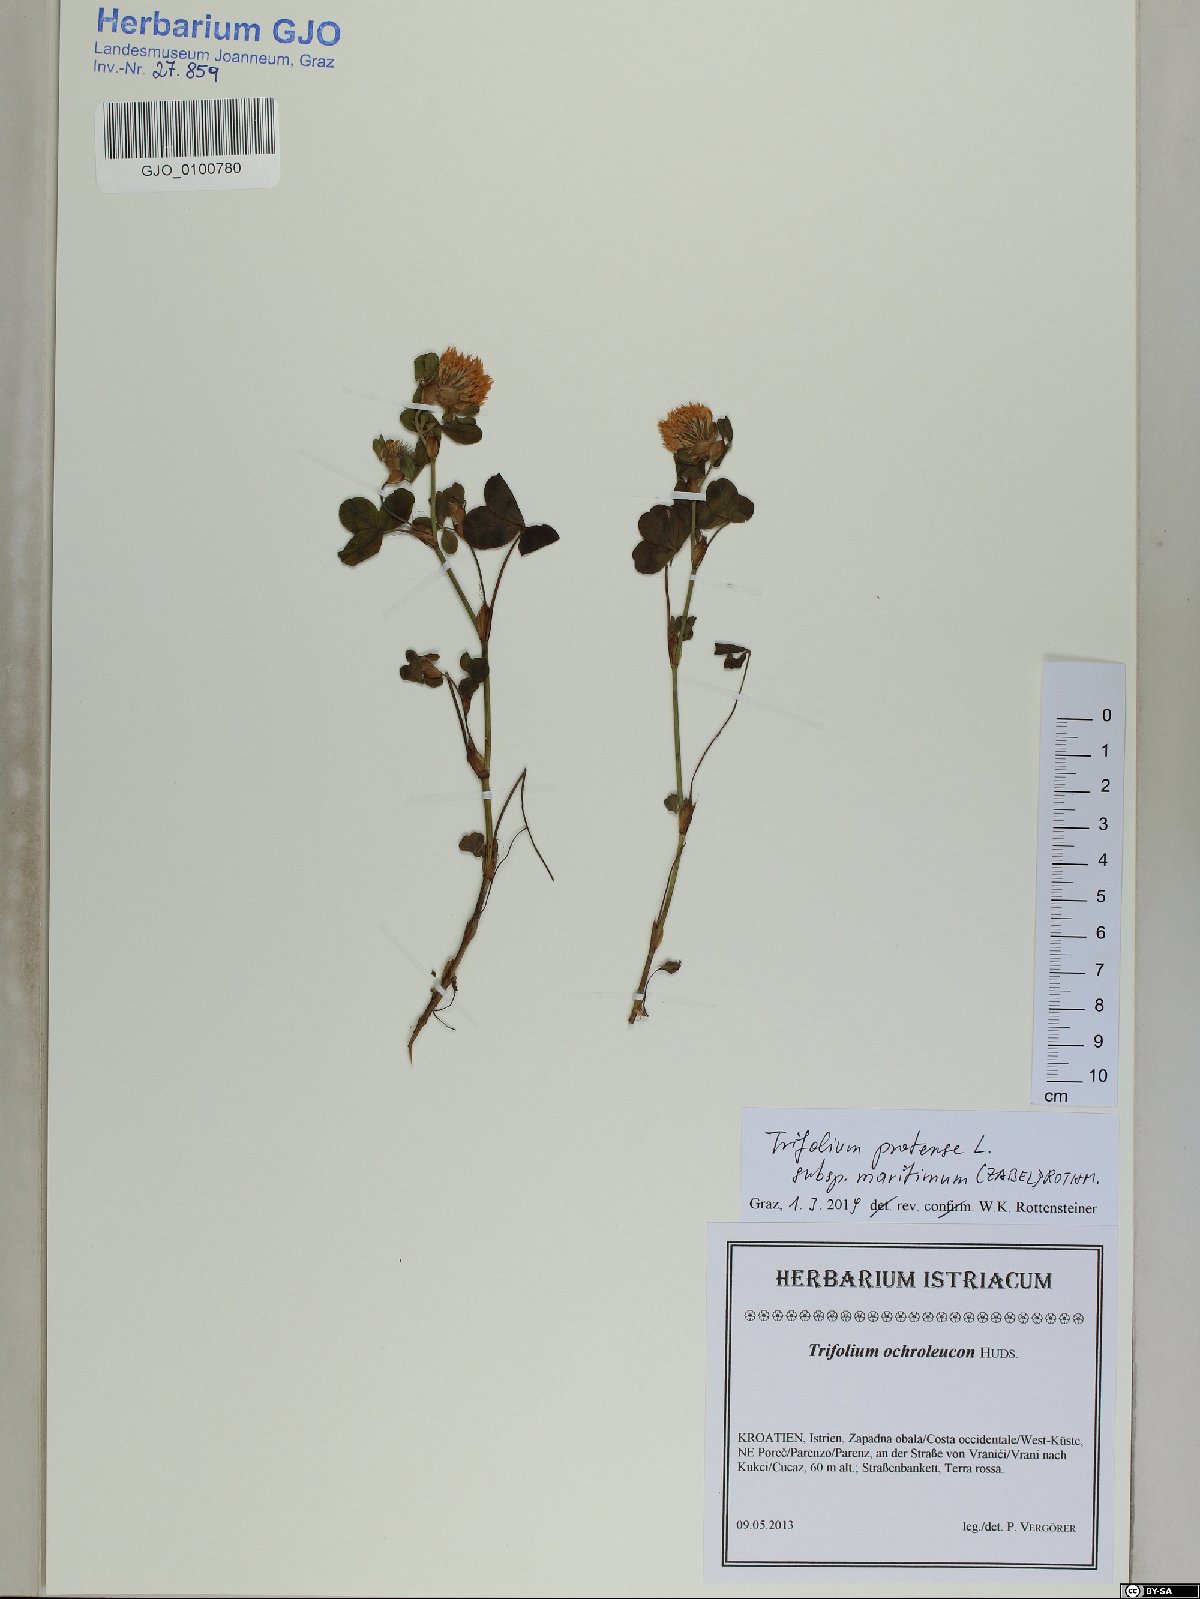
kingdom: Plantae
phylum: Tracheophyta
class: Magnoliopsida
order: Fabales
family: Fabaceae
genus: Trifolium
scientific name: Trifolium pratense
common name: Red clover
